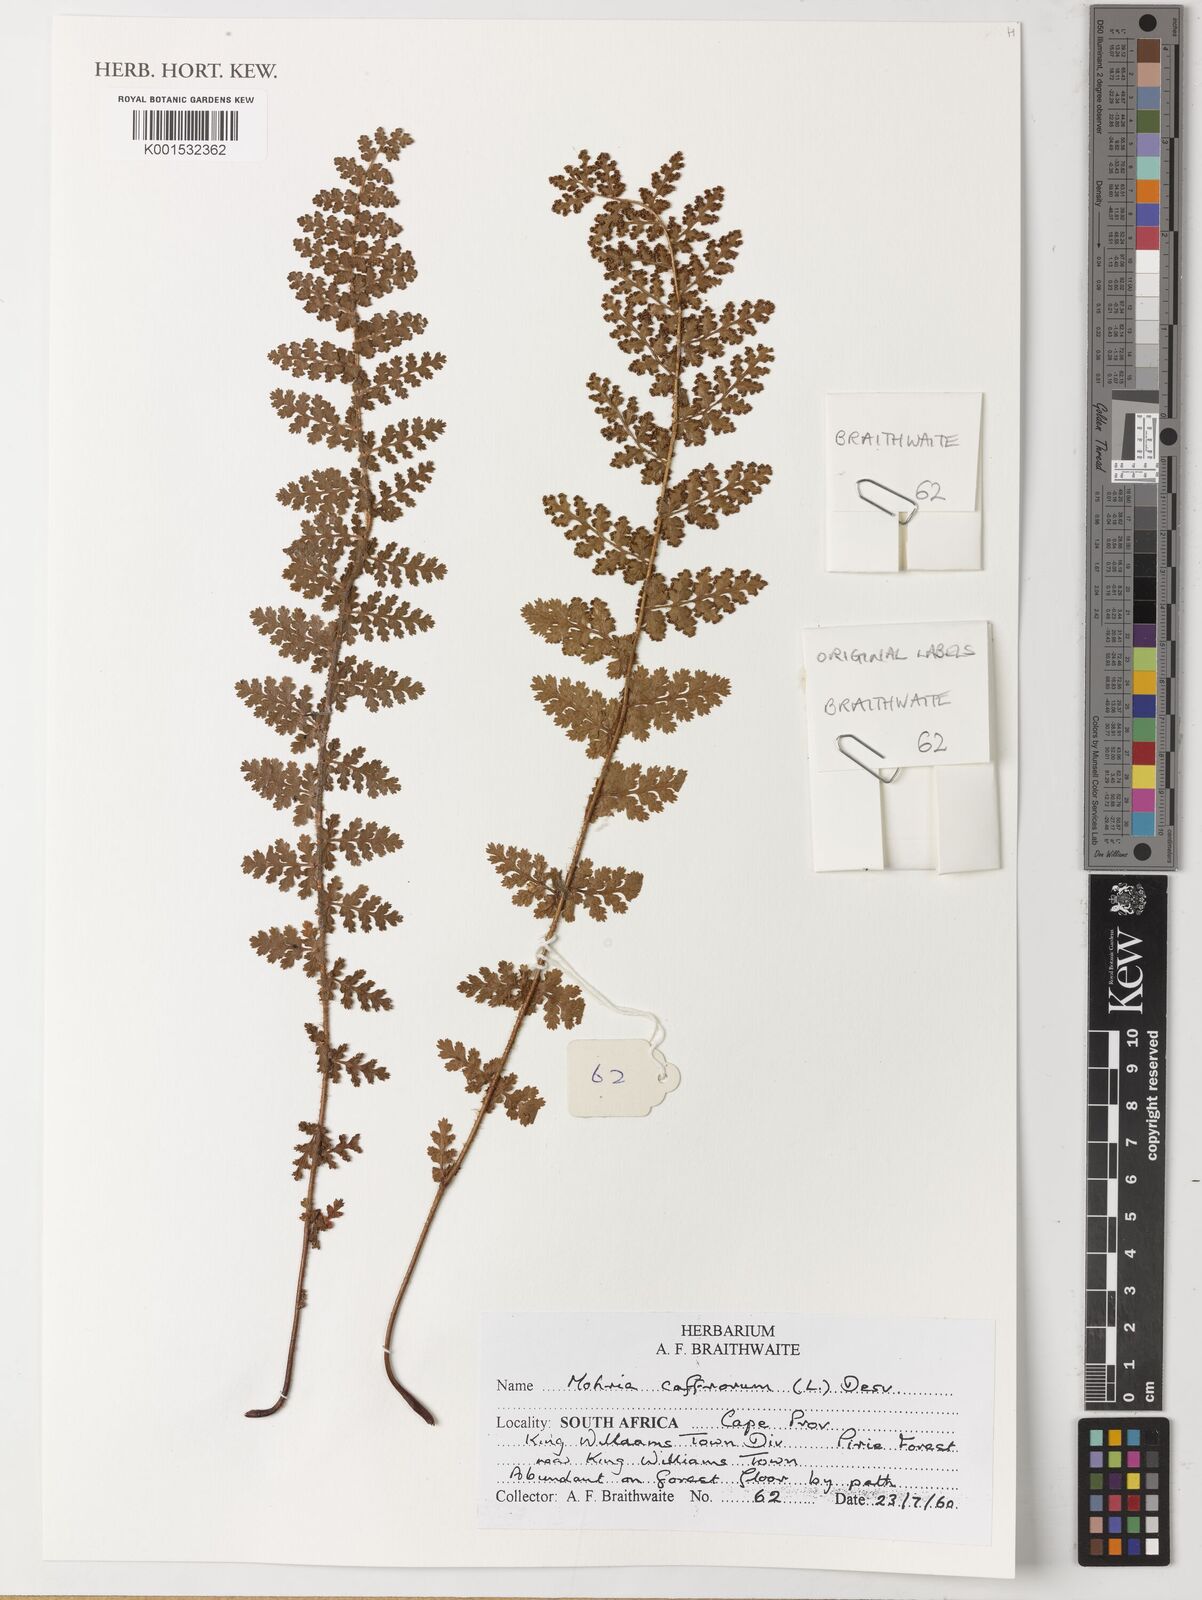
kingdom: Plantae
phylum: Tracheophyta
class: Polypodiopsida
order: Schizaeales
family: Anemiaceae
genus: Anemia
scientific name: Anemia caffrorum
